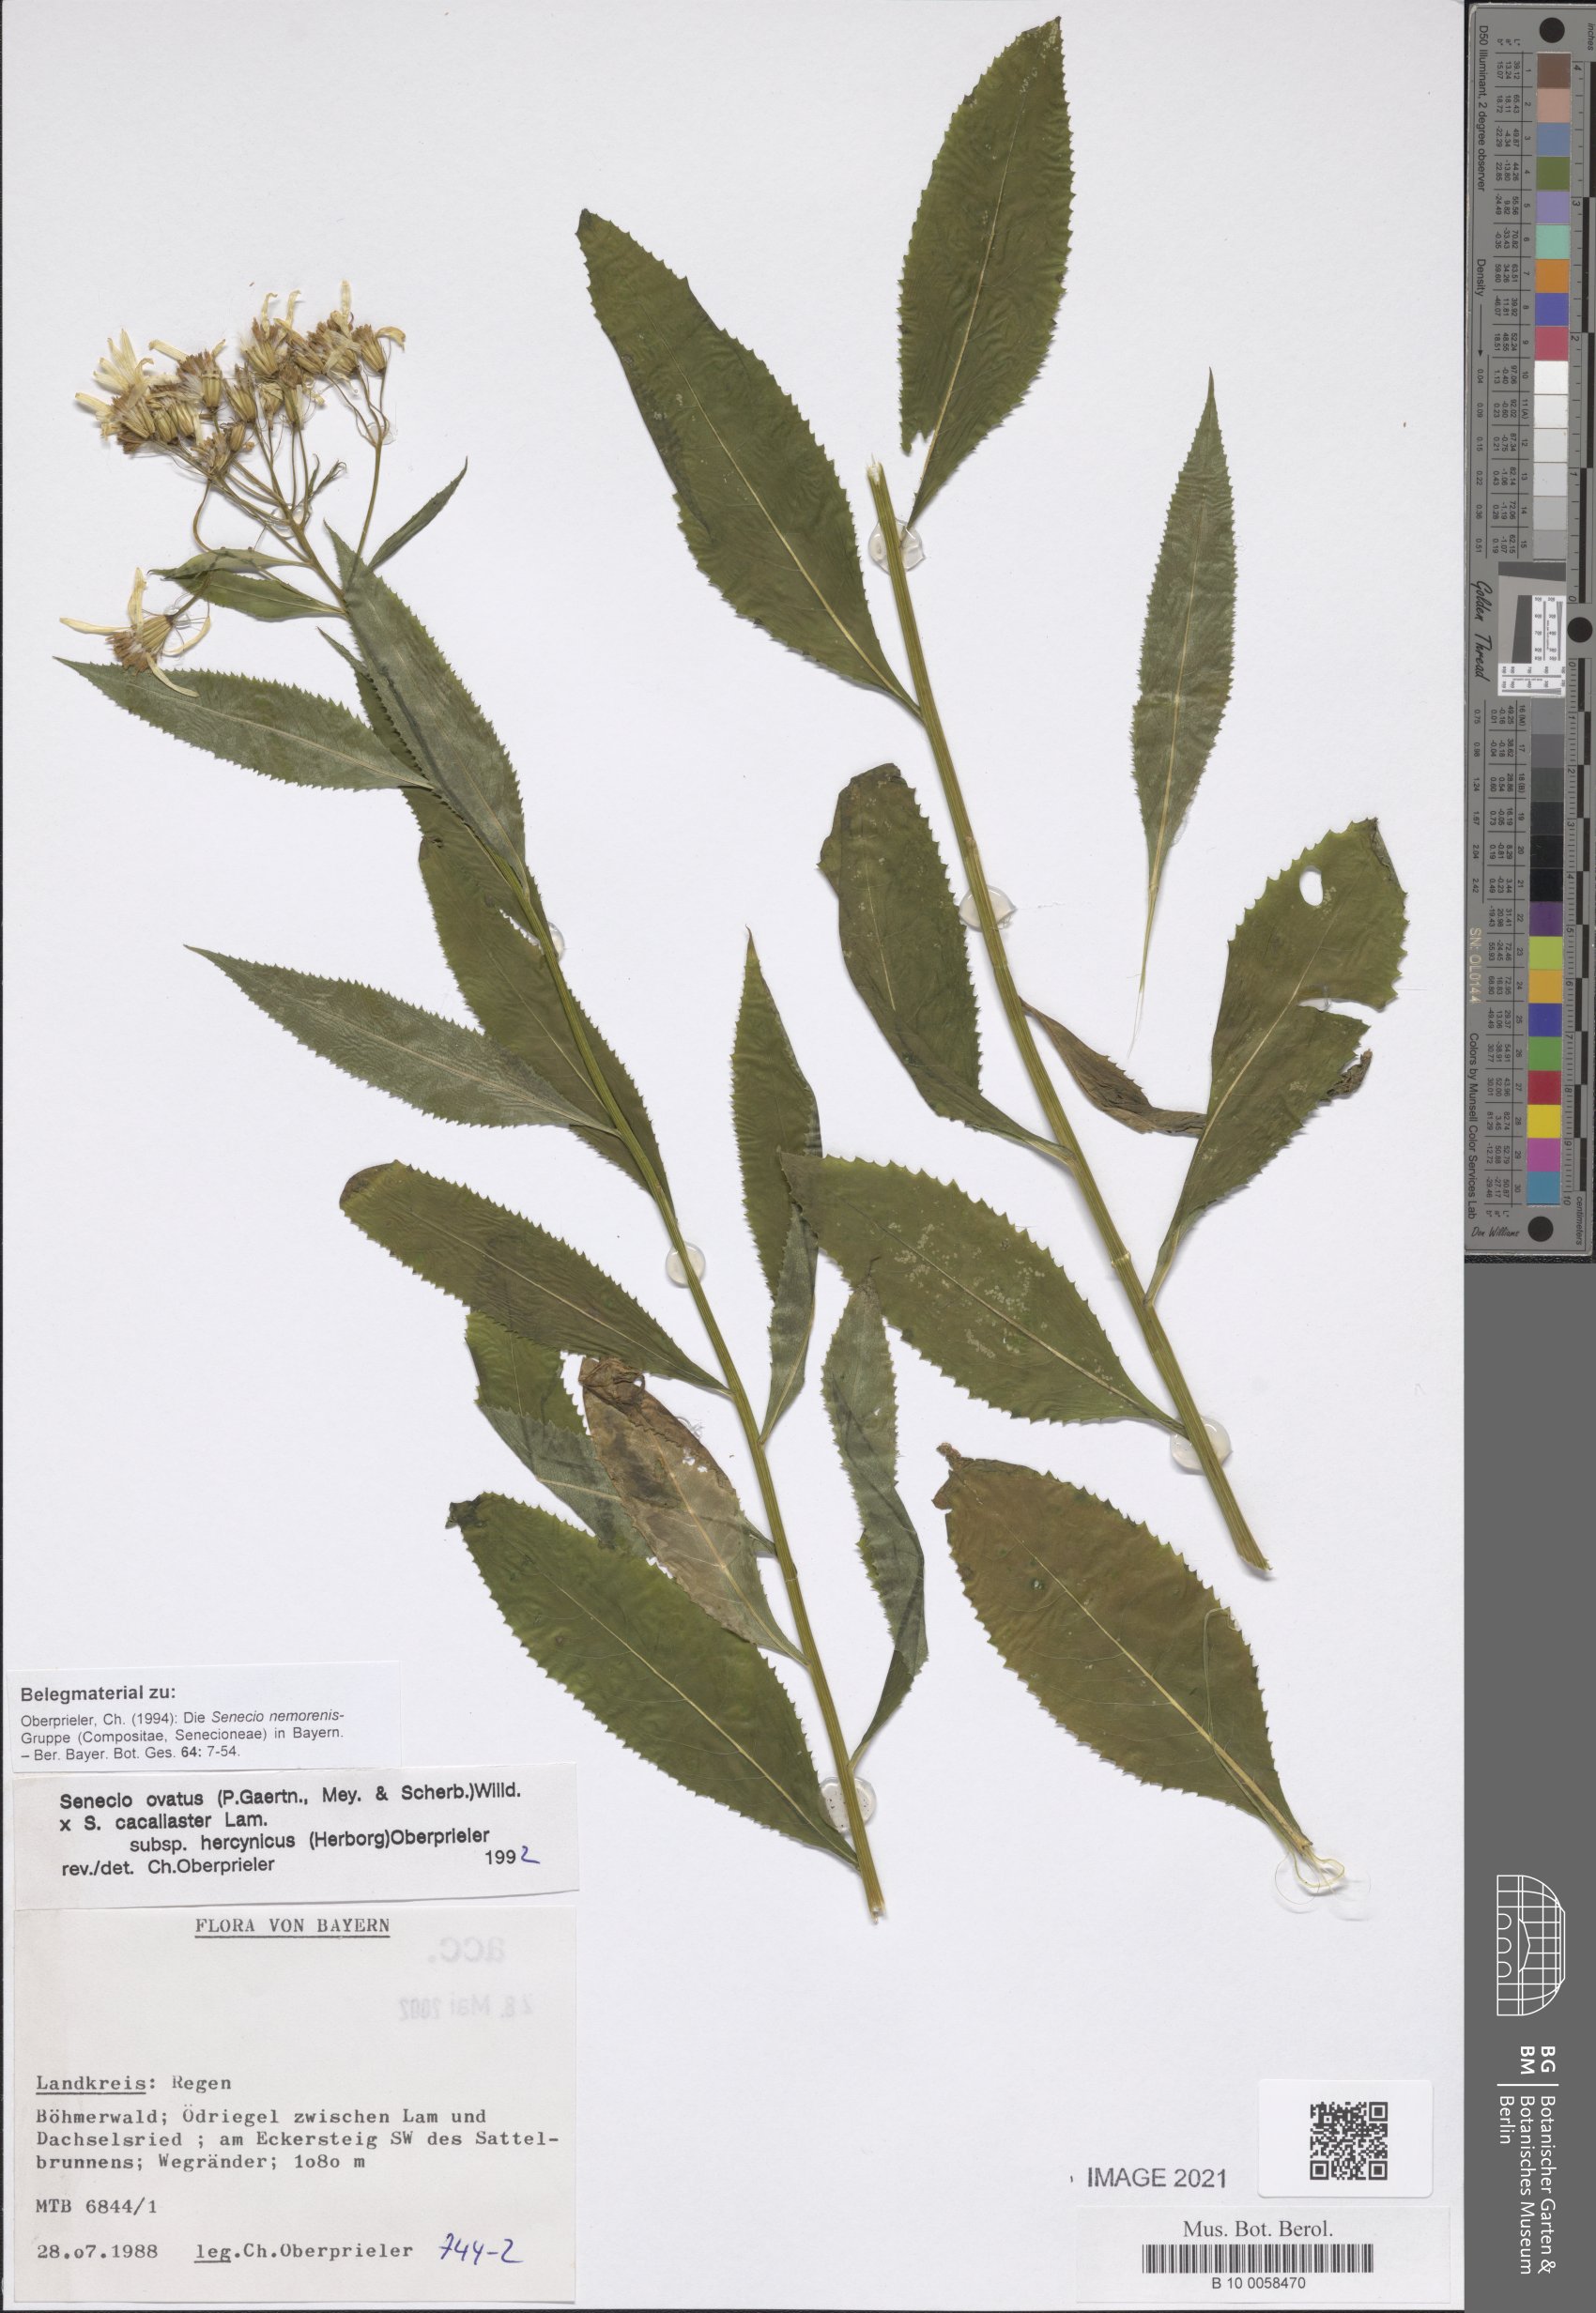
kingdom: Plantae
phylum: Tracheophyta
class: Magnoliopsida
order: Asterales
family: Asteraceae
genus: Senecio
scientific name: Senecio ovatus
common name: Wood ragwort
